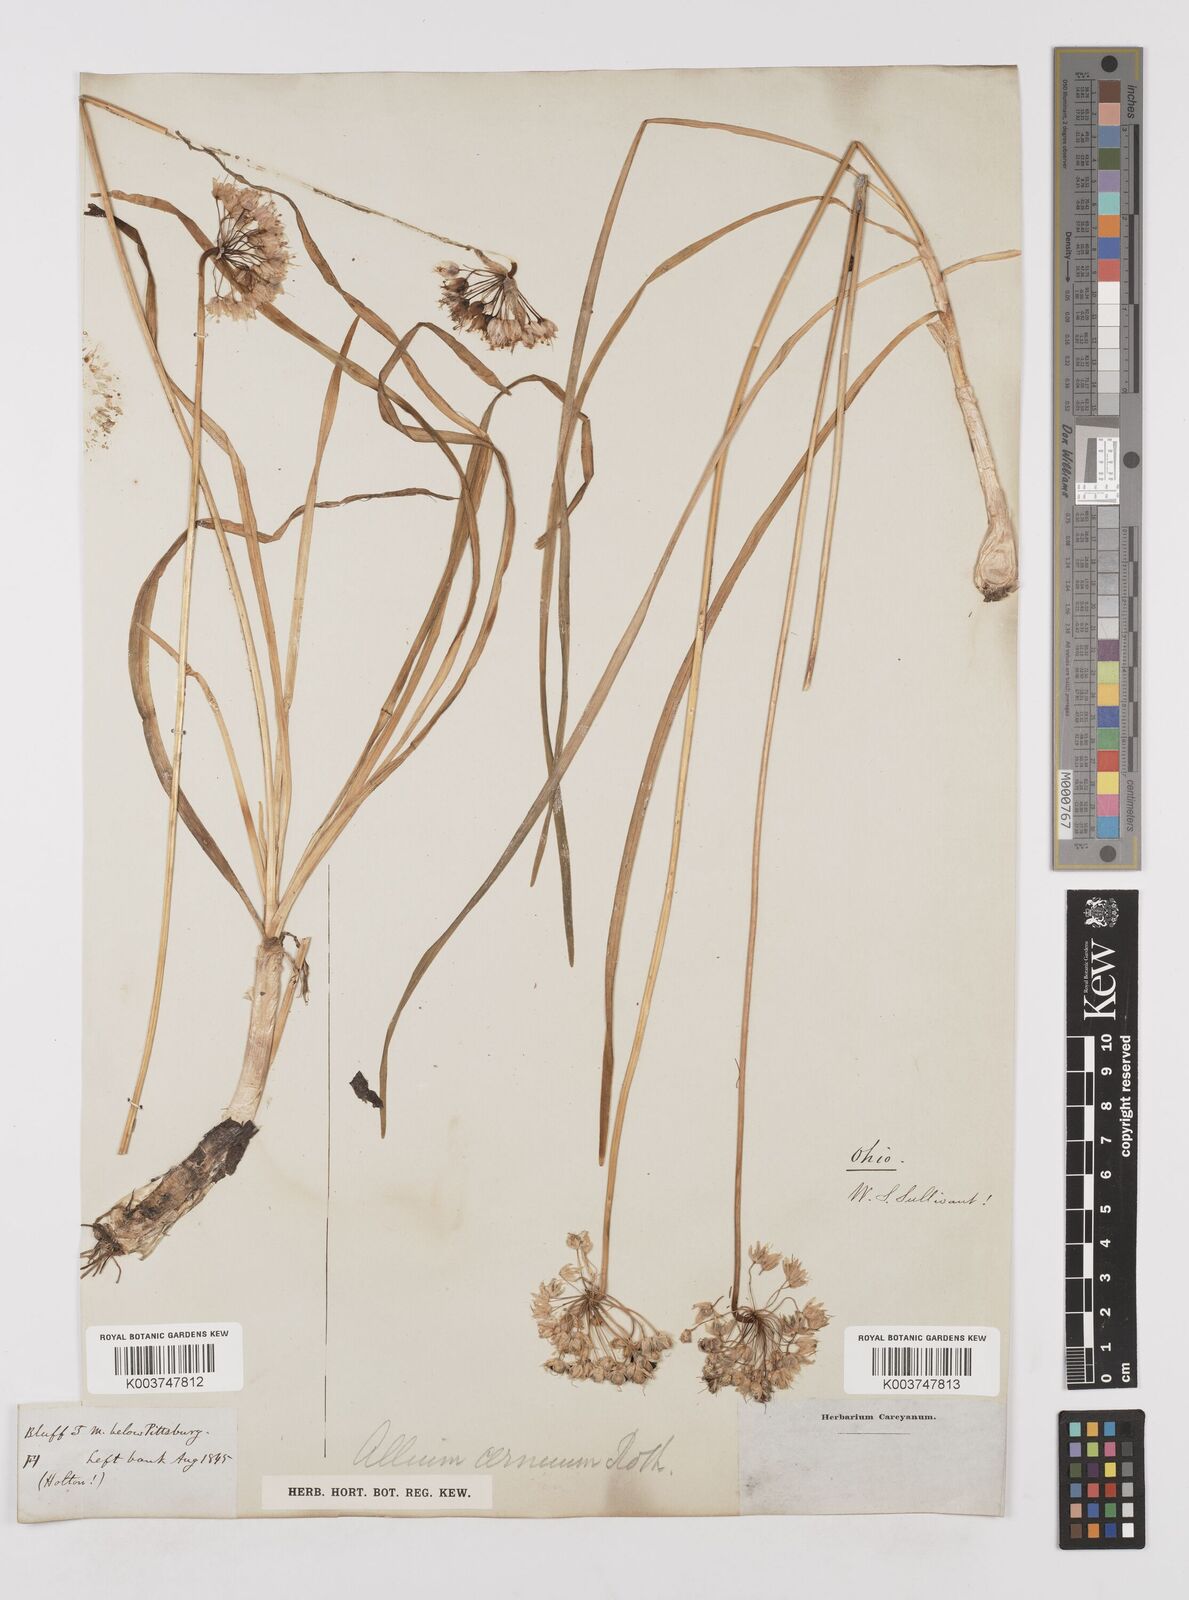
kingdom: Plantae
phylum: Tracheophyta
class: Liliopsida
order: Asparagales
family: Amaryllidaceae
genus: Allium
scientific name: Allium cernuum
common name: Nodding onion
